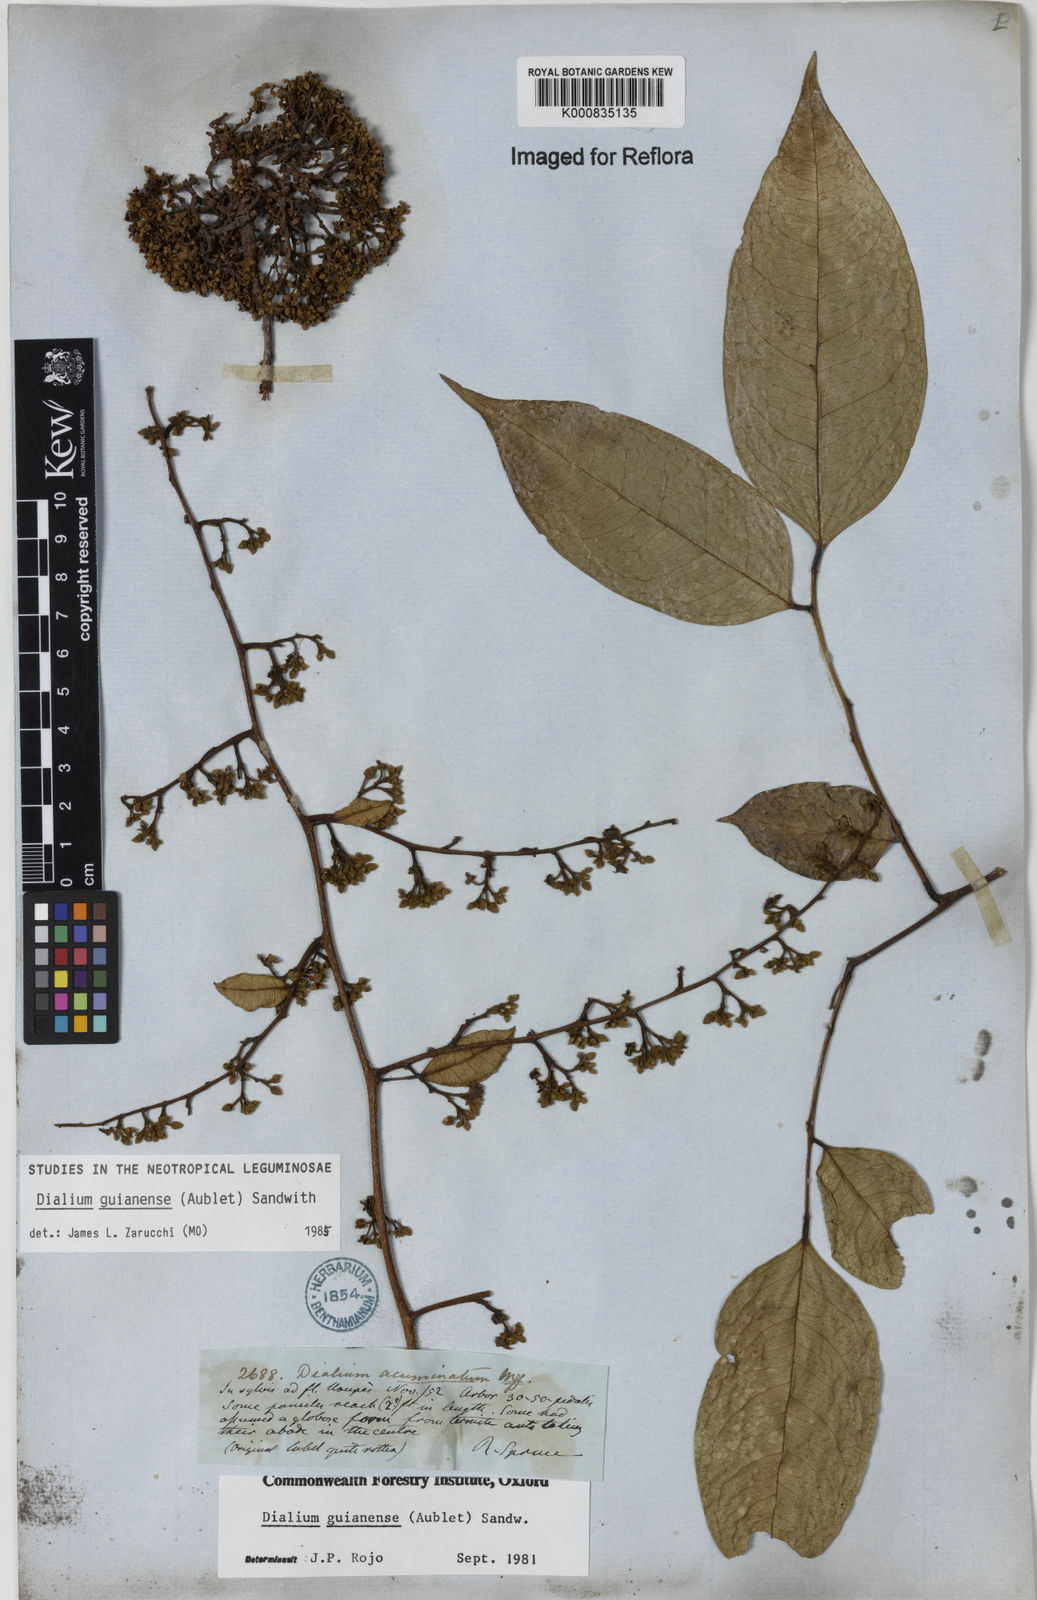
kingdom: Plantae
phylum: Tracheophyta
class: Magnoliopsida
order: Fabales
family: Fabaceae
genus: Dialium
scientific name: Dialium zenkeri
